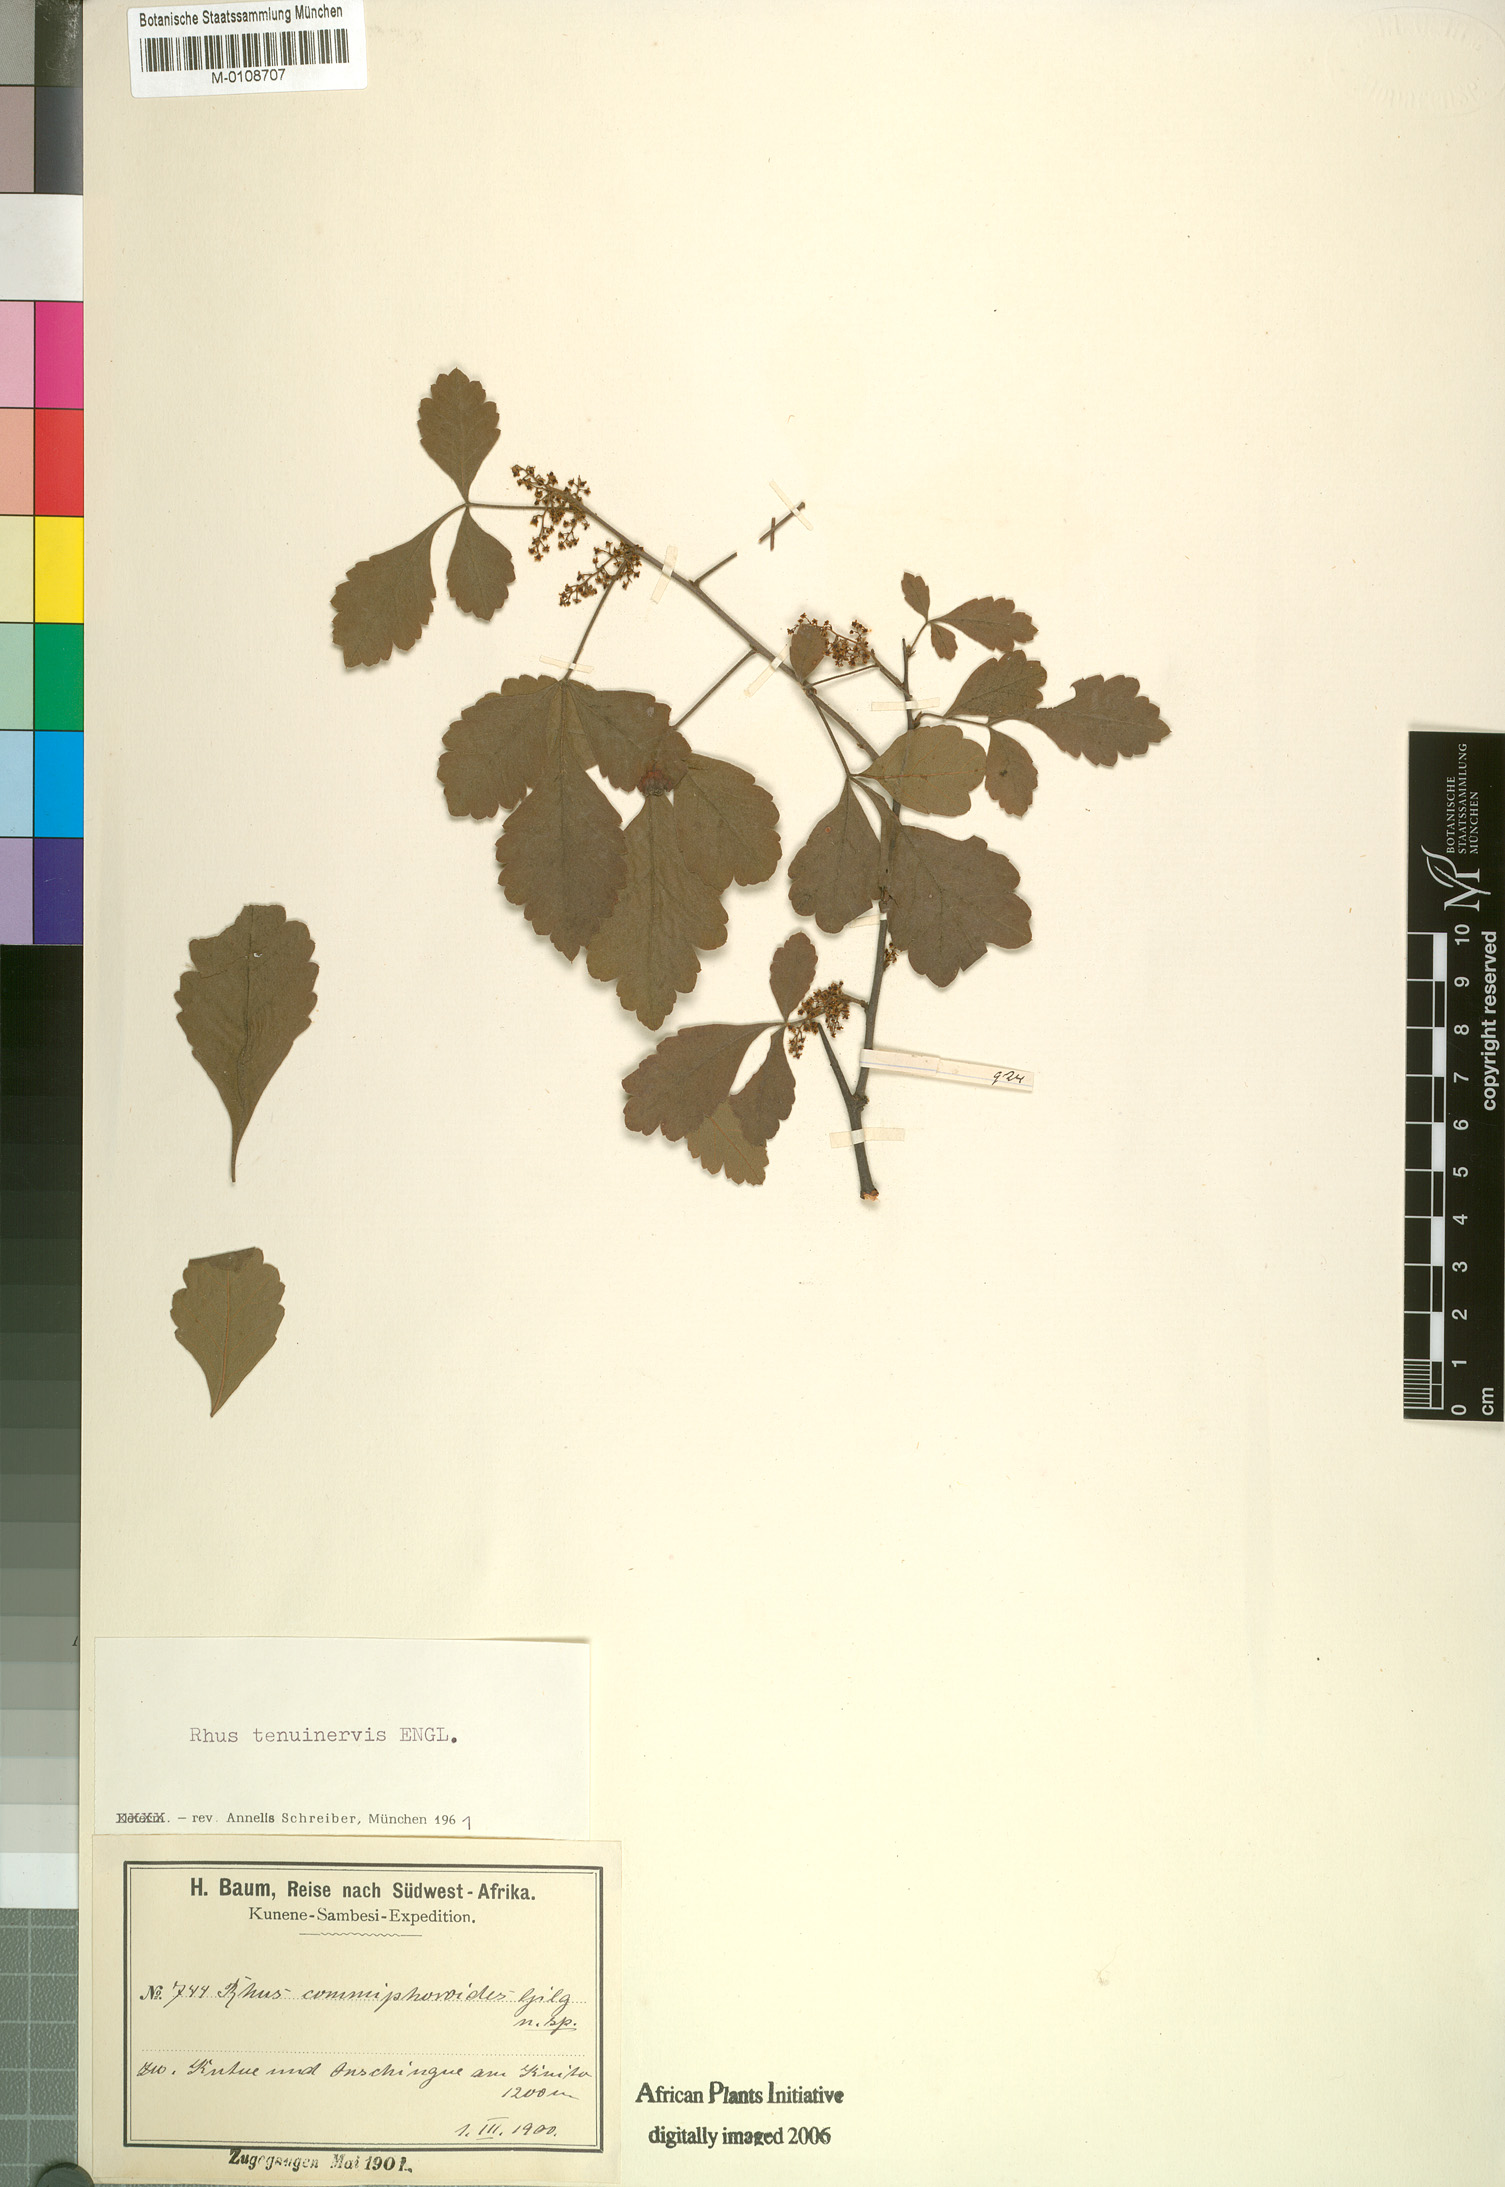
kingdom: Plantae
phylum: Tracheophyta
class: Magnoliopsida
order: Sapindales
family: Anacardiaceae
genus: Searsia
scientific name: Searsia tenuinervis
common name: Hyaena taaibos
